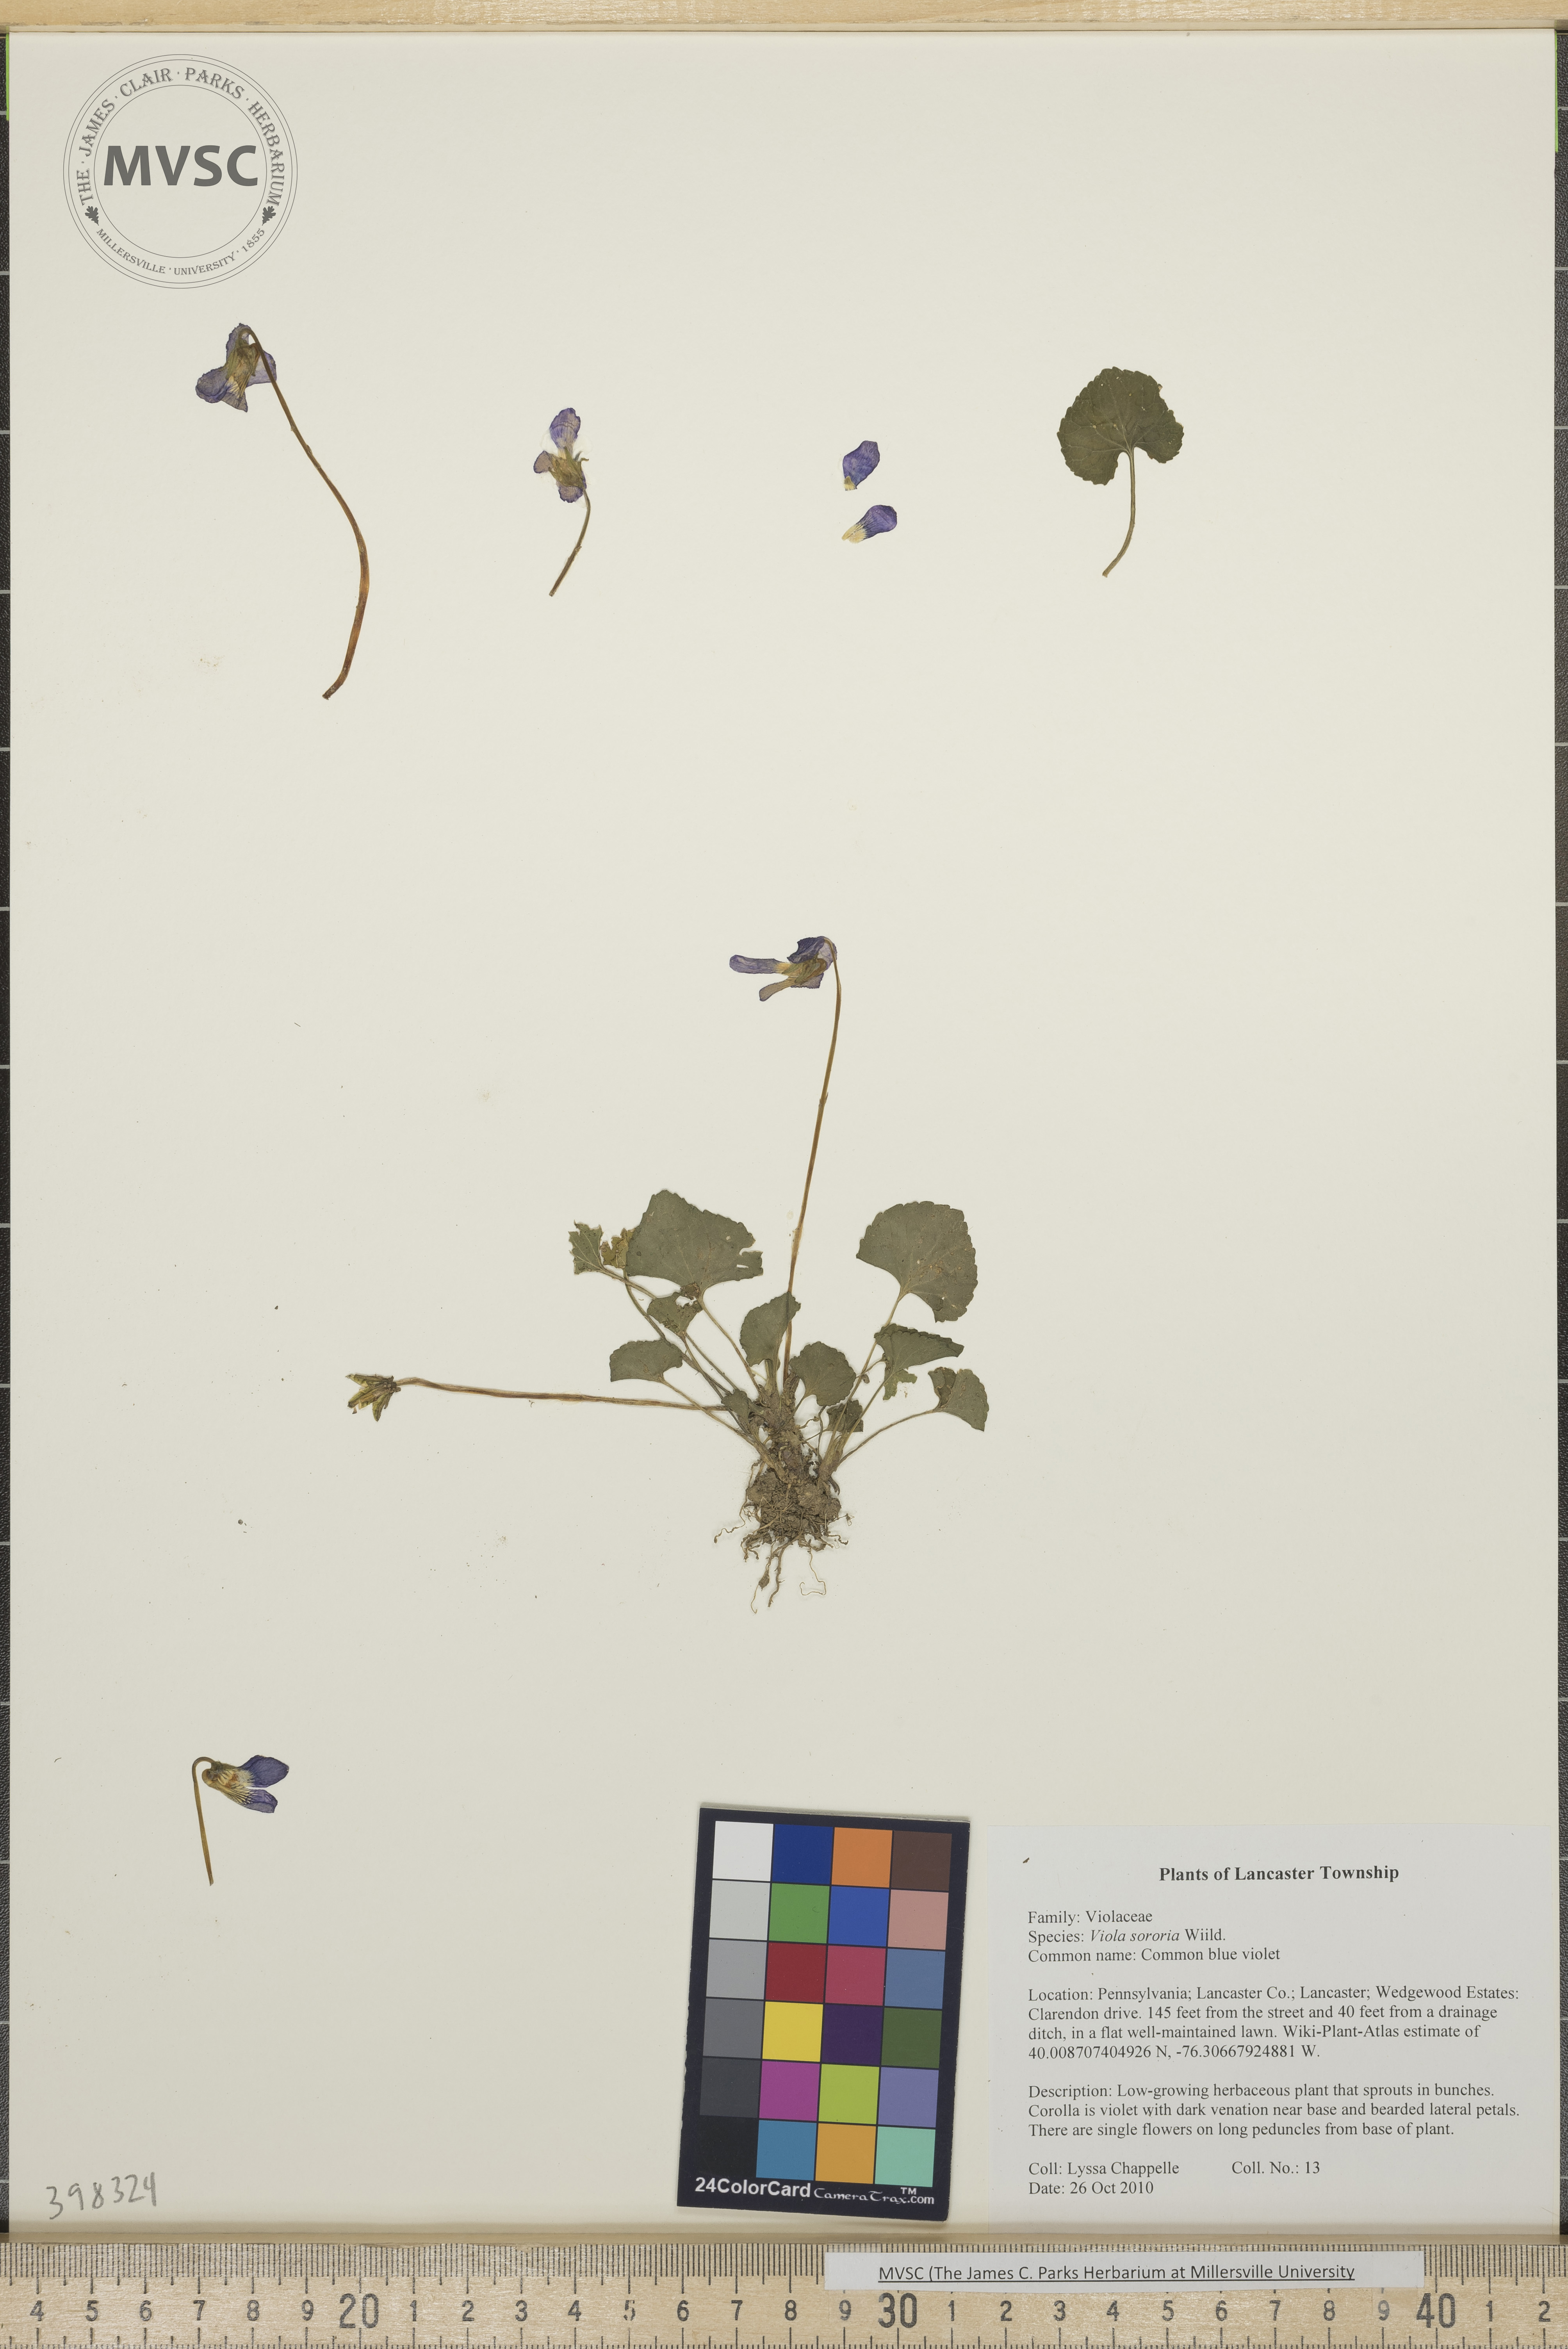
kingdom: Plantae
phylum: Tracheophyta
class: Magnoliopsida
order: Malpighiales
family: Violaceae
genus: Viola
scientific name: Viola sororia
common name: Common blue violet
